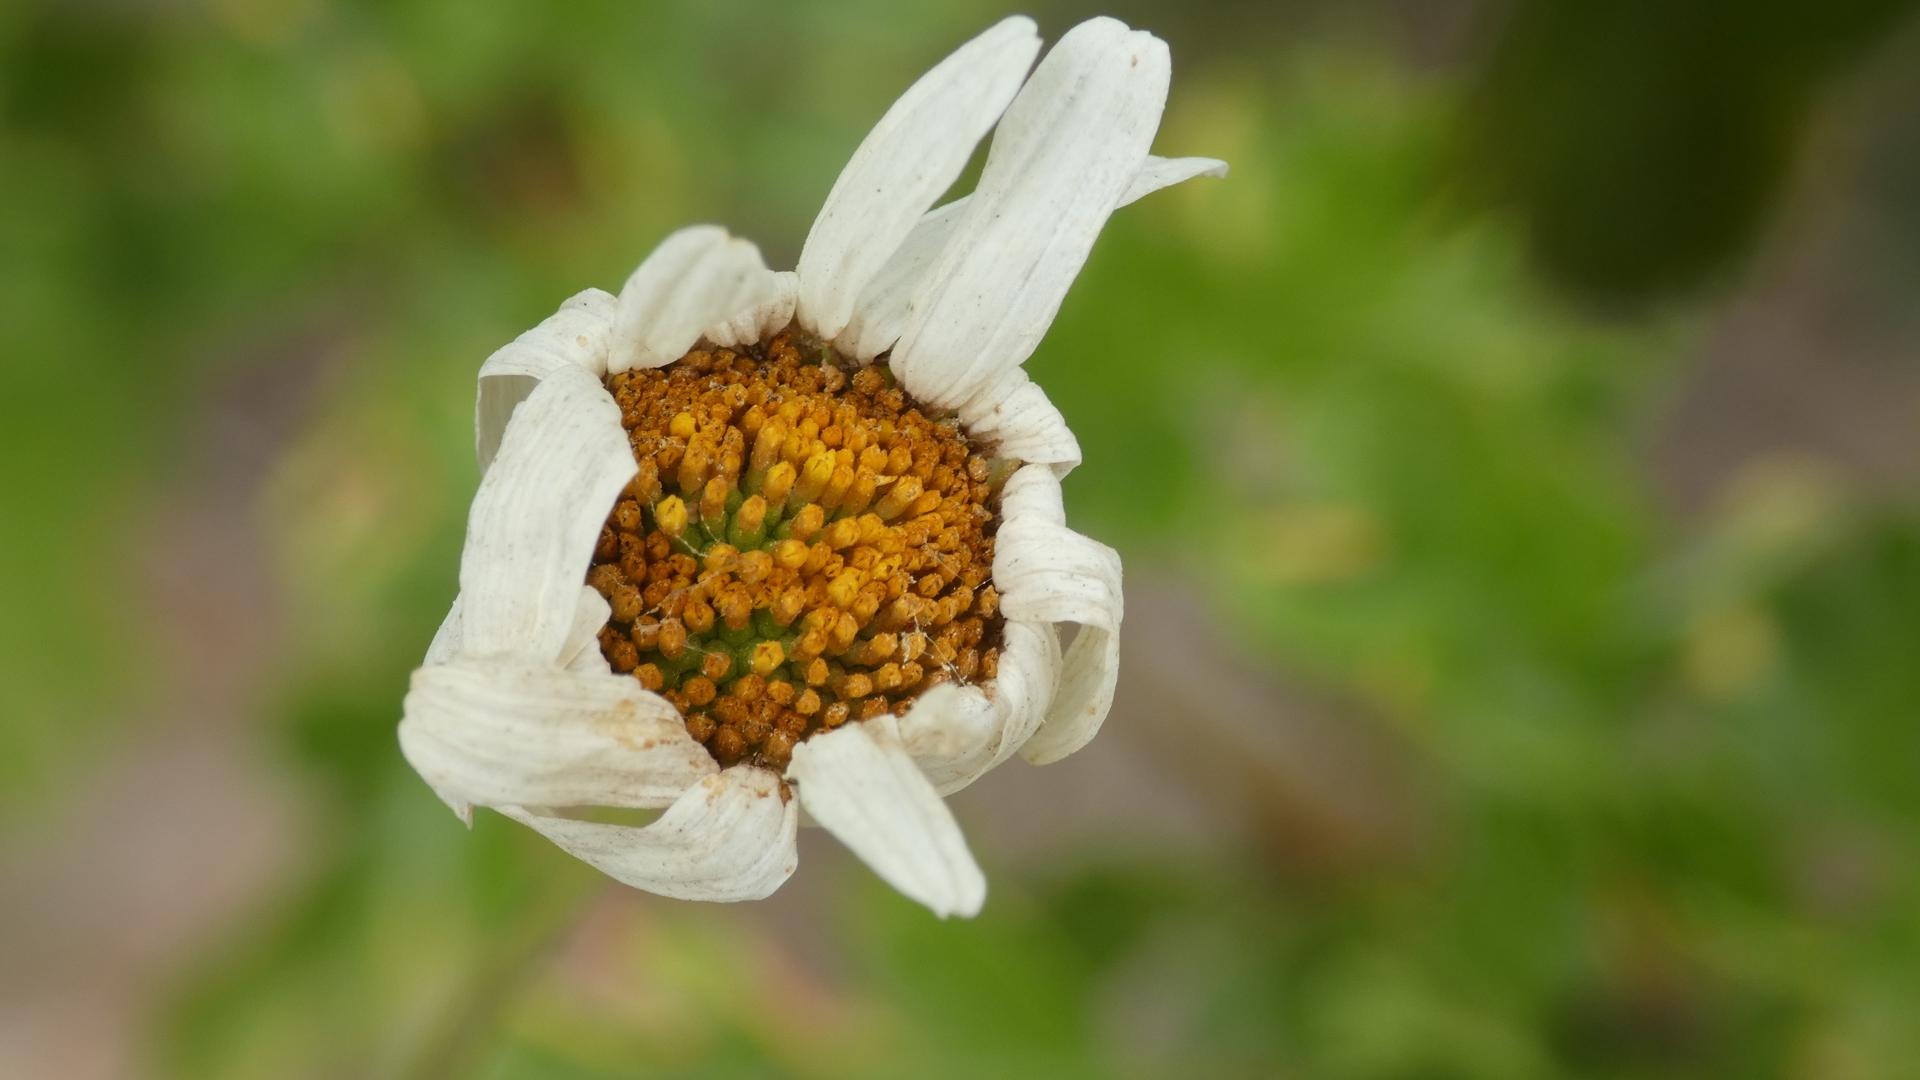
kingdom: Plantae
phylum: Tracheophyta
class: Magnoliopsida
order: Asterales
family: Asteraceae
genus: Leucanthemum
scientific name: Leucanthemum vulgare
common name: Hvid okseøje
